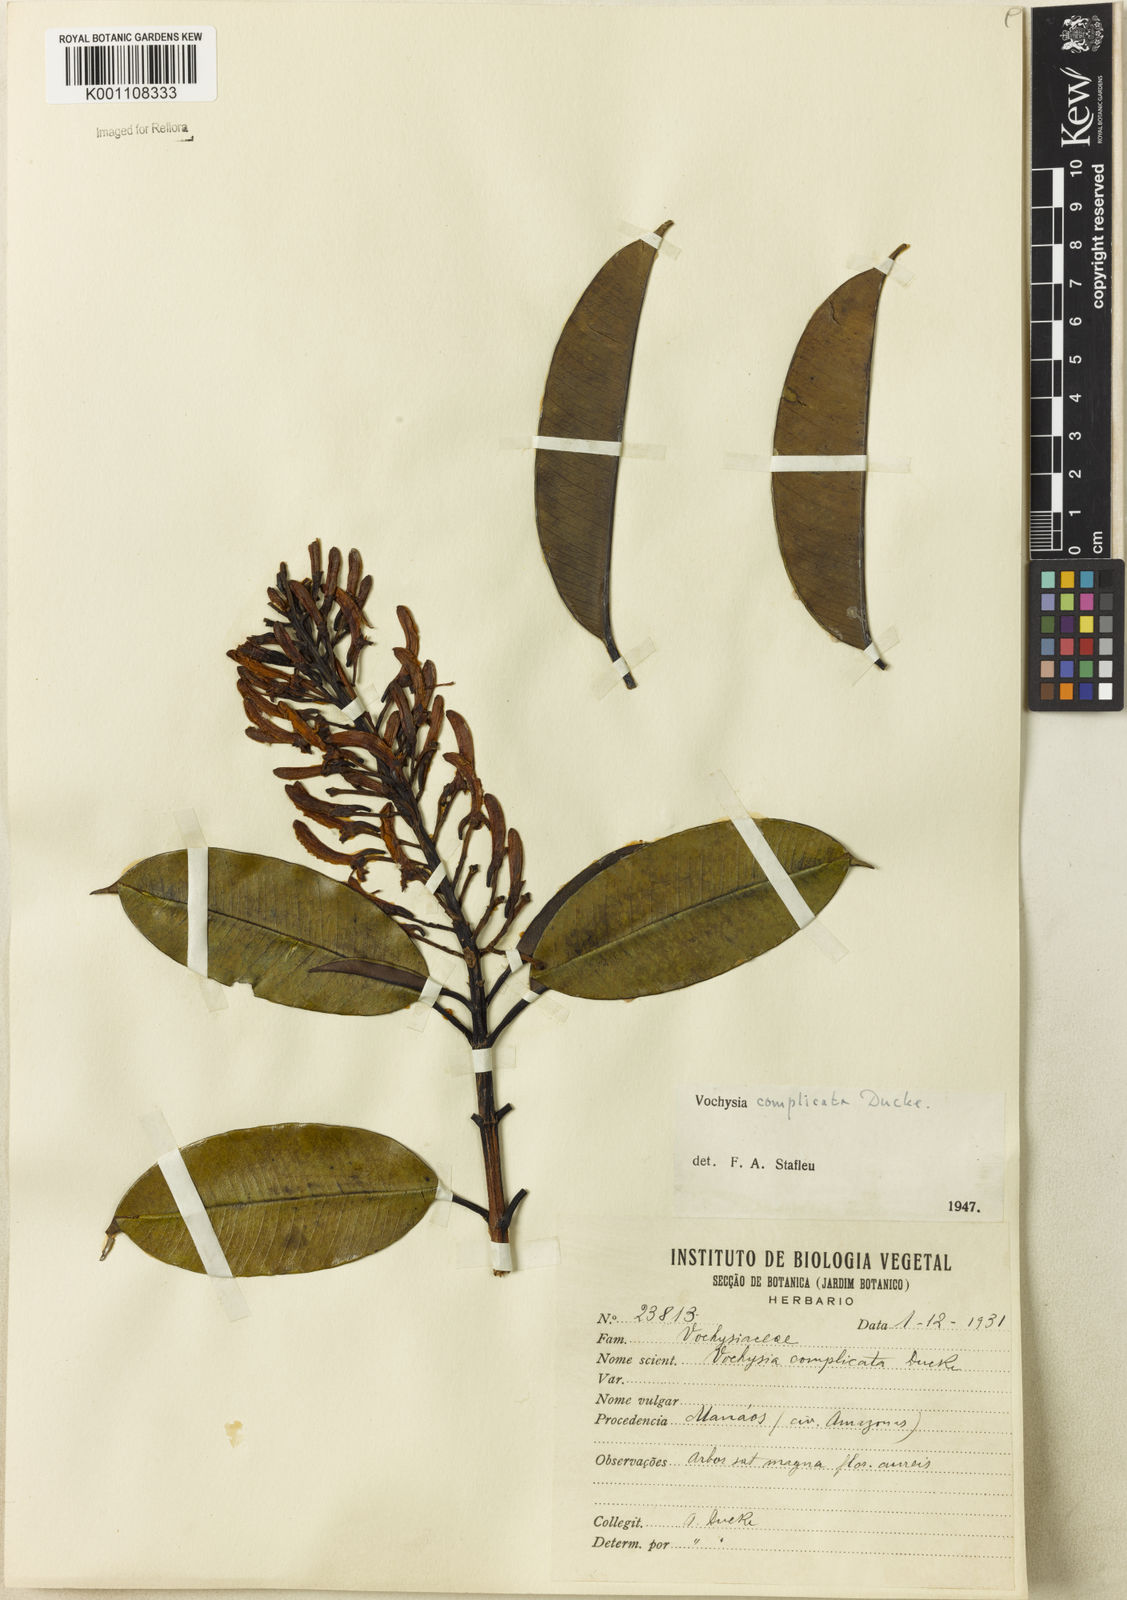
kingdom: Plantae
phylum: Tracheophyta
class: Magnoliopsida
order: Myrtales
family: Vochysiaceae
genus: Vochysia
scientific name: Vochysia complicata
